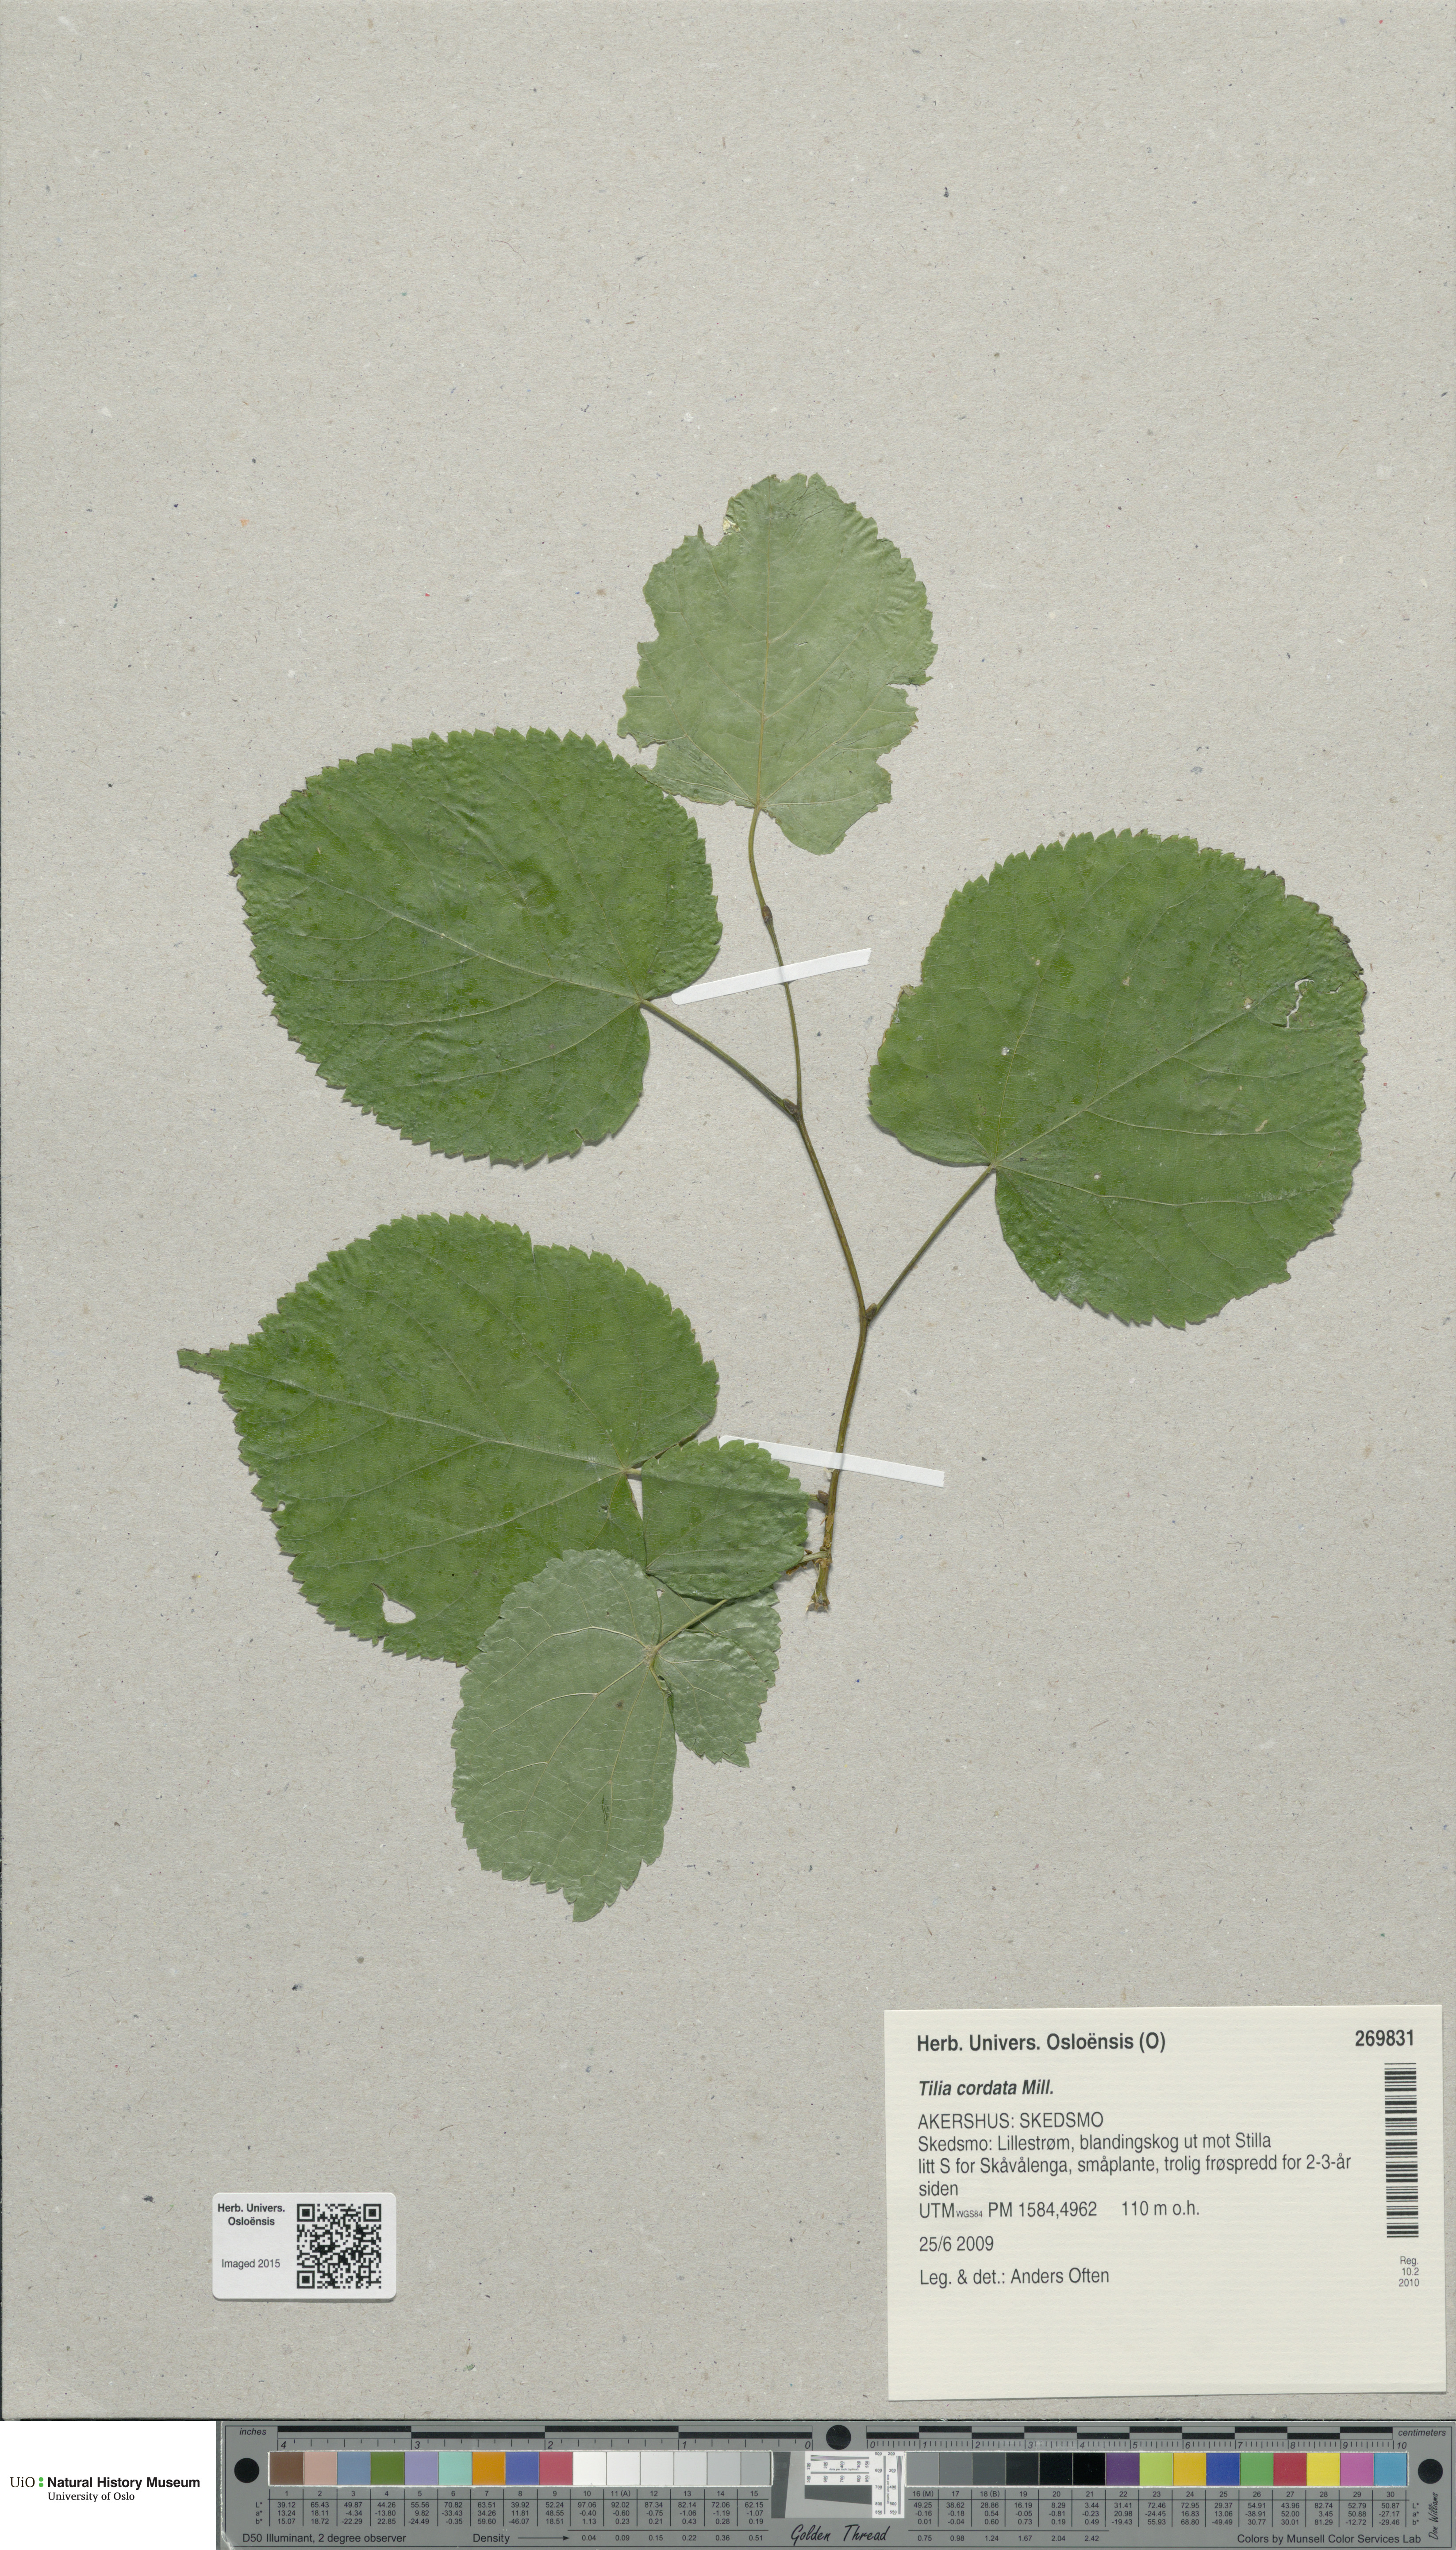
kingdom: Plantae
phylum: Tracheophyta
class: Magnoliopsida
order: Malvales
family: Malvaceae
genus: Tilia
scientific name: Tilia cordata
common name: Small-leaved lime
